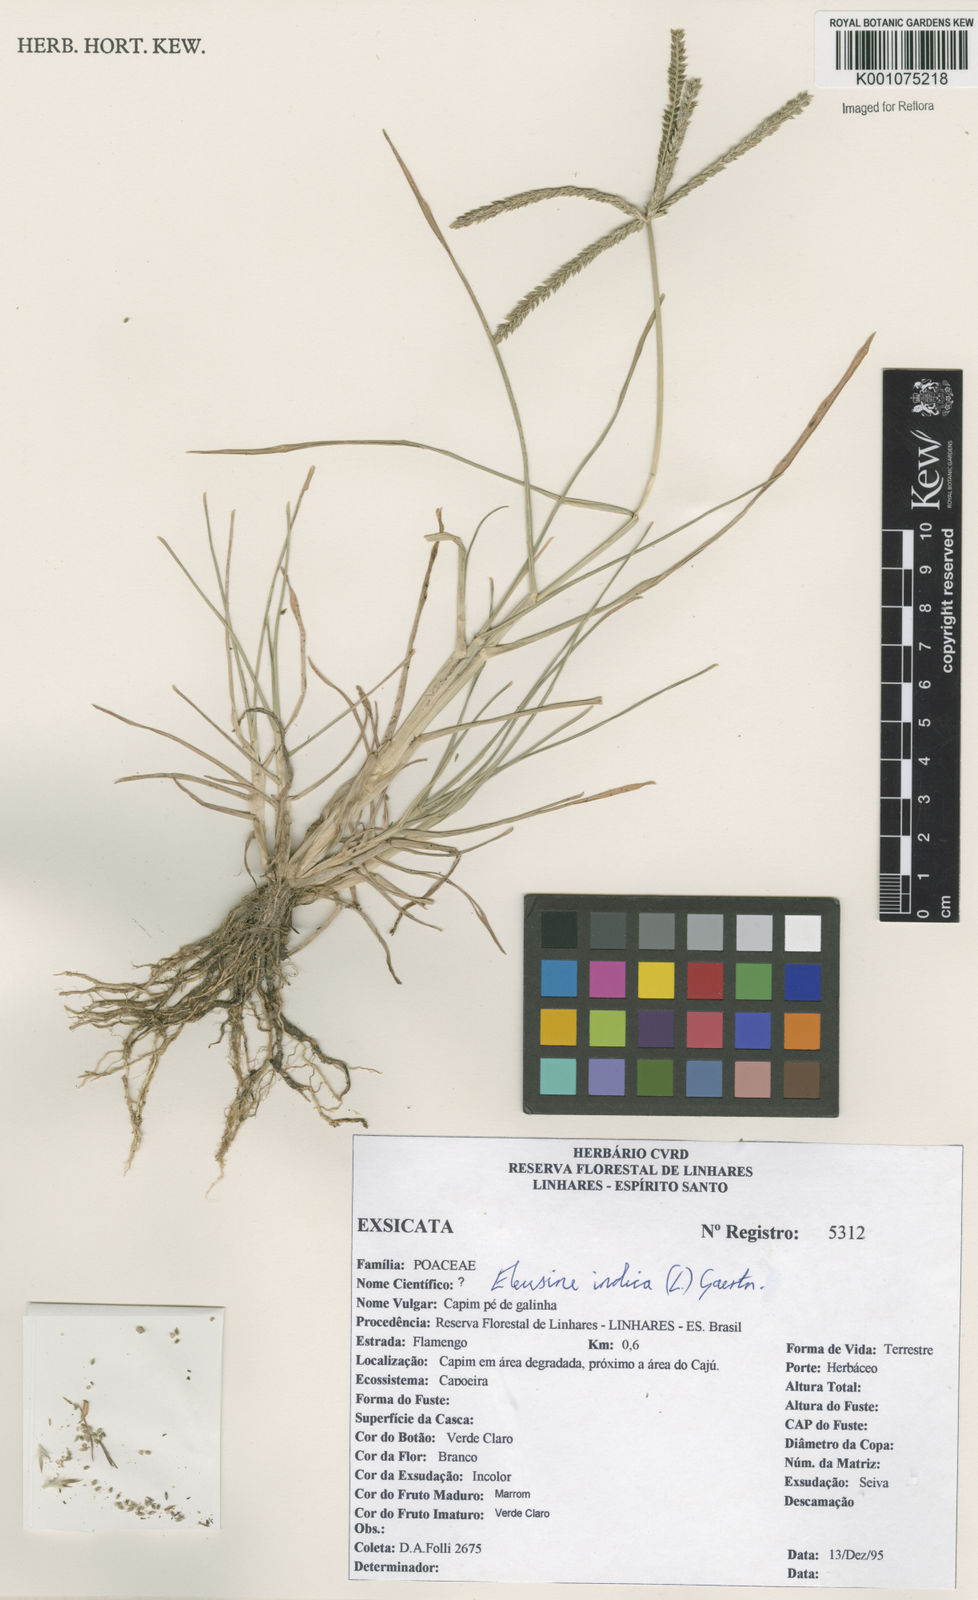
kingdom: Plantae
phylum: Tracheophyta
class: Liliopsida
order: Poales
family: Poaceae
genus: Eleusine
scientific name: Eleusine indica
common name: Yard-grass
